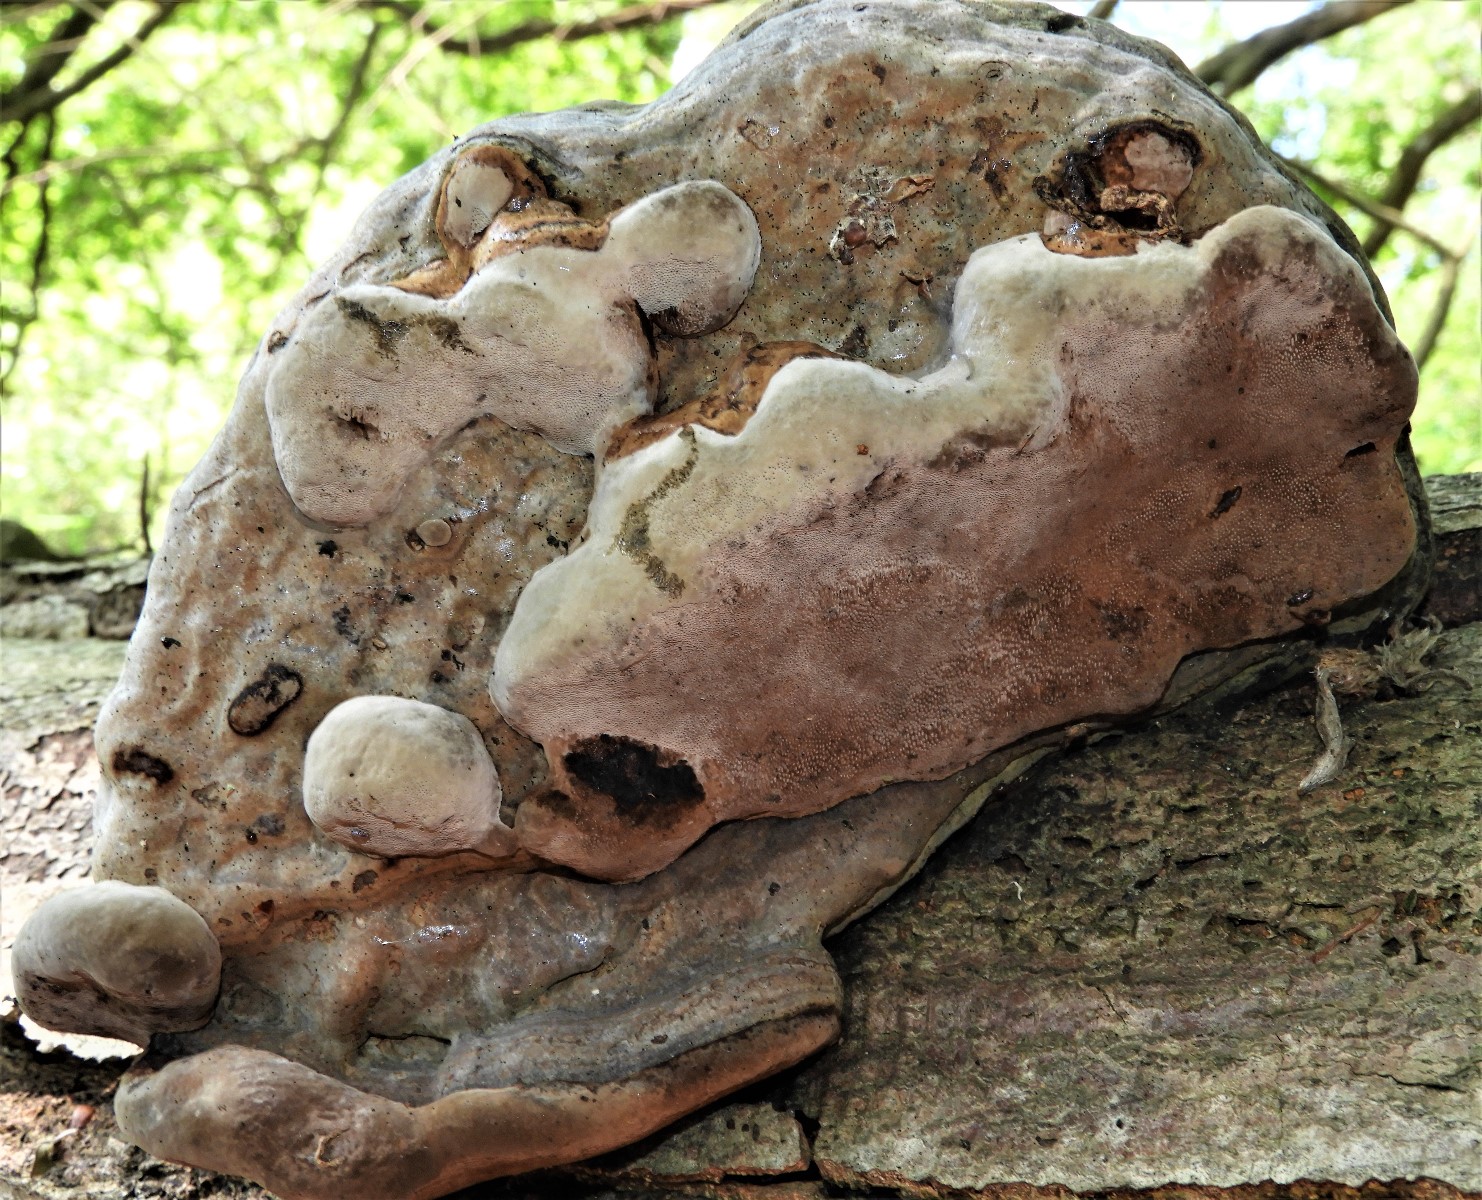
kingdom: Fungi
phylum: Basidiomycota
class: Agaricomycetes
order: Polyporales
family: Polyporaceae
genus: Fomes
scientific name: Fomes fomentarius
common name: tøndersvamp
